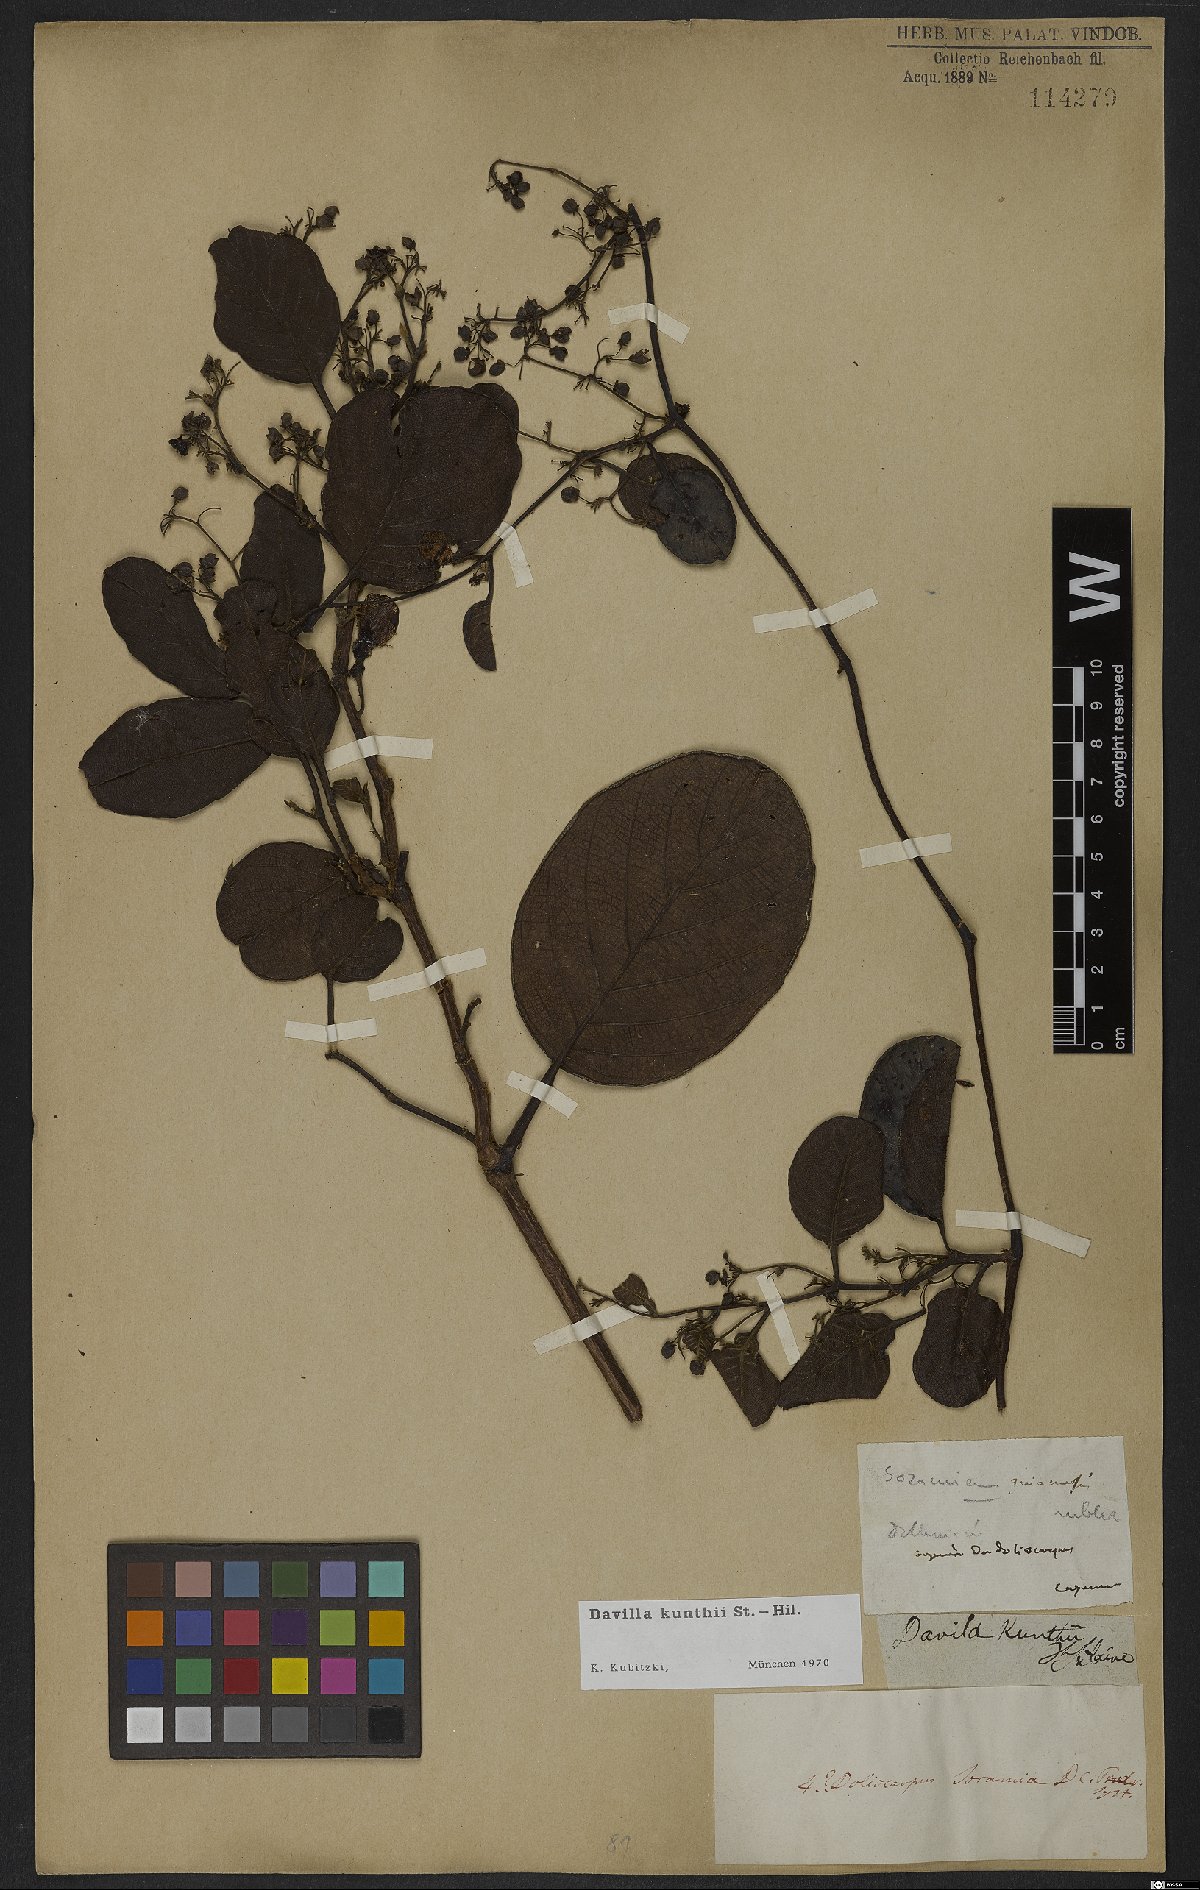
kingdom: Plantae
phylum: Tracheophyta
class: Magnoliopsida
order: Dilleniales
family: Dilleniaceae
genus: Davilla
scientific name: Davilla kunthii
